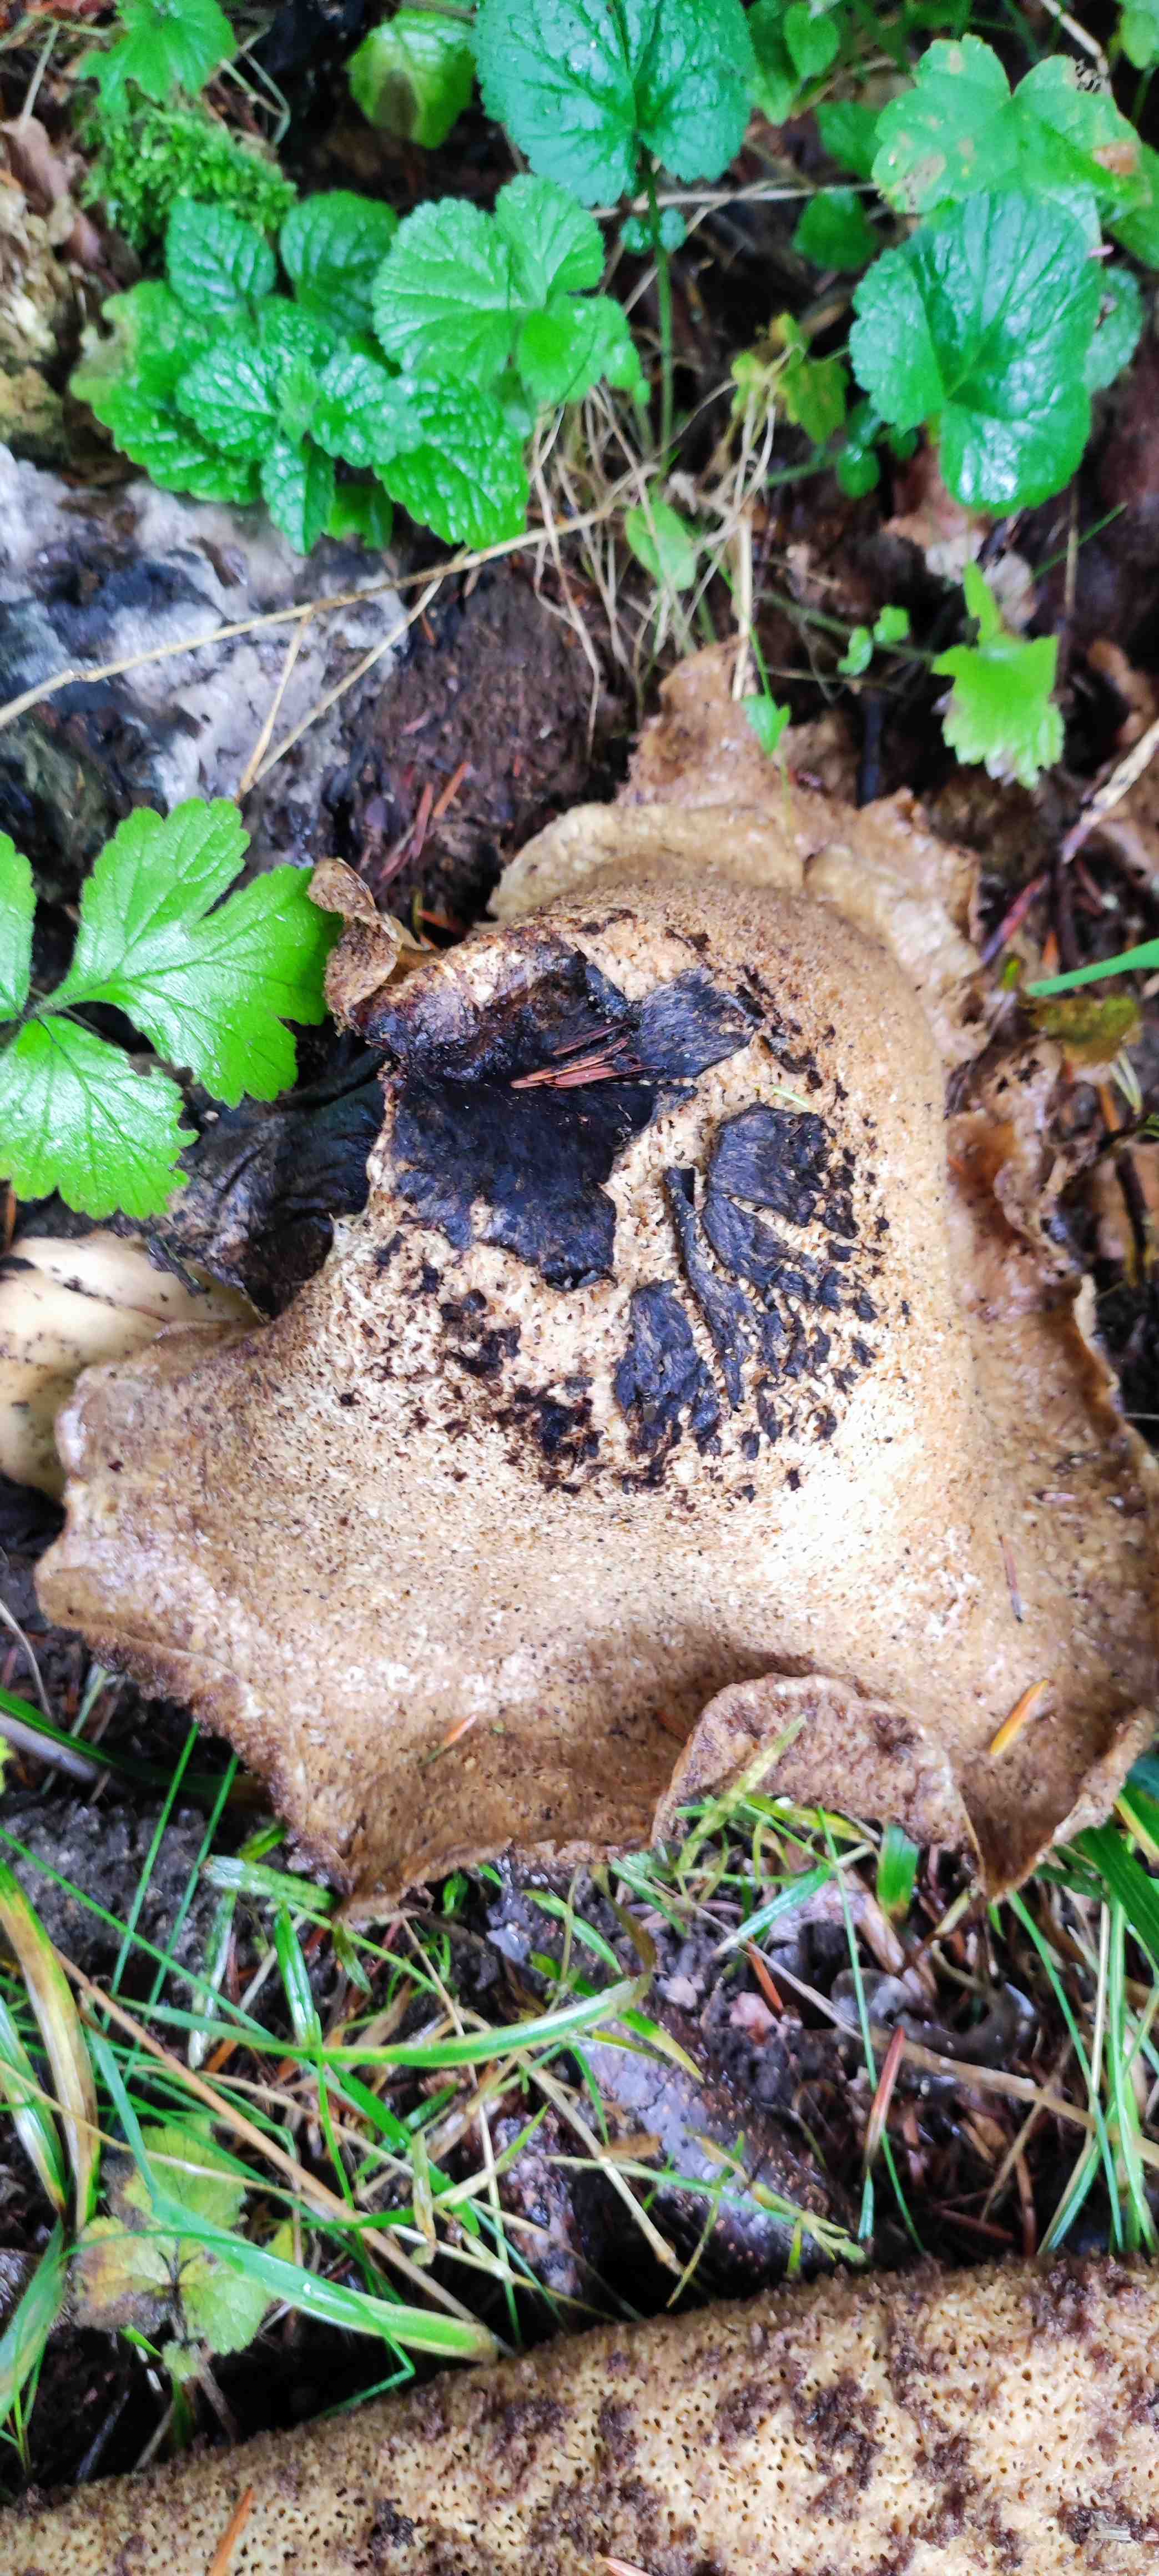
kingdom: Fungi
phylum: Basidiomycota
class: Agaricomycetes
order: Polyporales
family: Polyporaceae
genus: Cerioporus
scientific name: Cerioporus squamosus
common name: skællet stilkporesvamp
